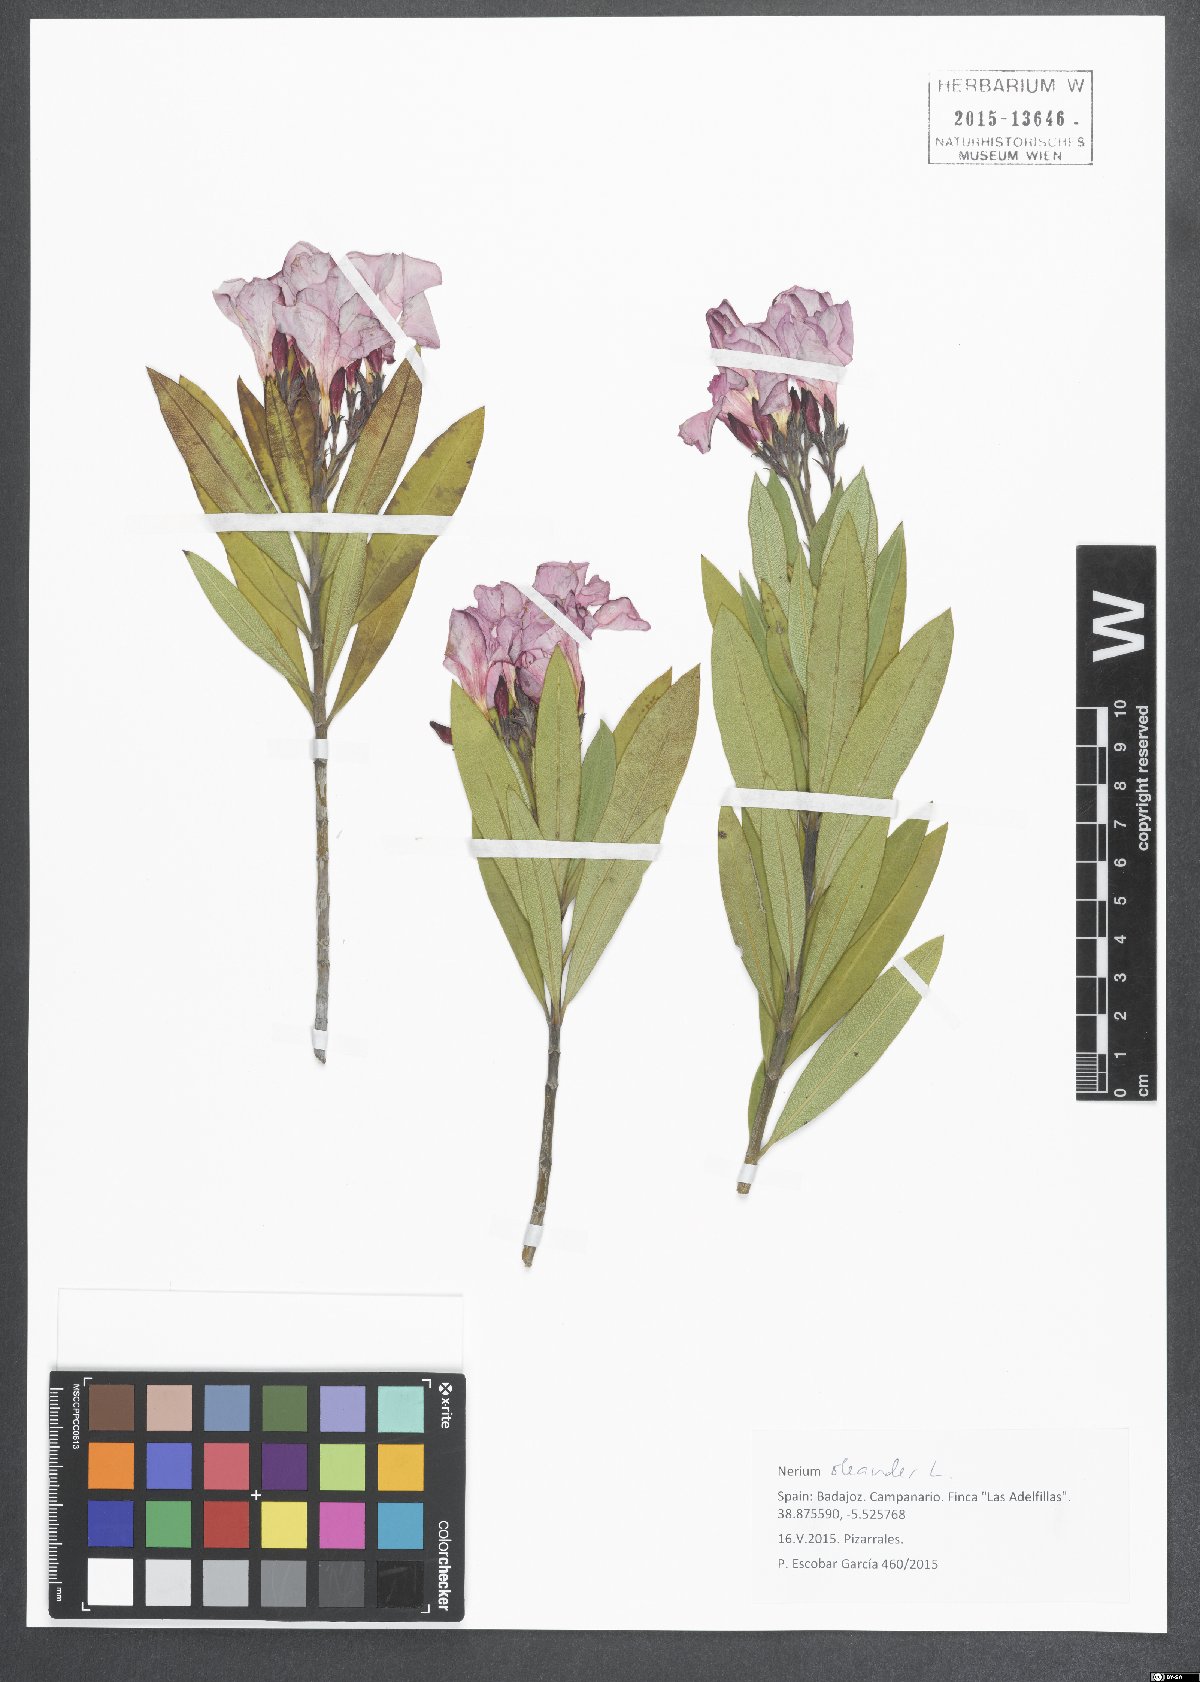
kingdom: Plantae
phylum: Tracheophyta
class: Magnoliopsida
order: Gentianales
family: Apocynaceae
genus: Nerium
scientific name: Nerium oleander
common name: Oleander
